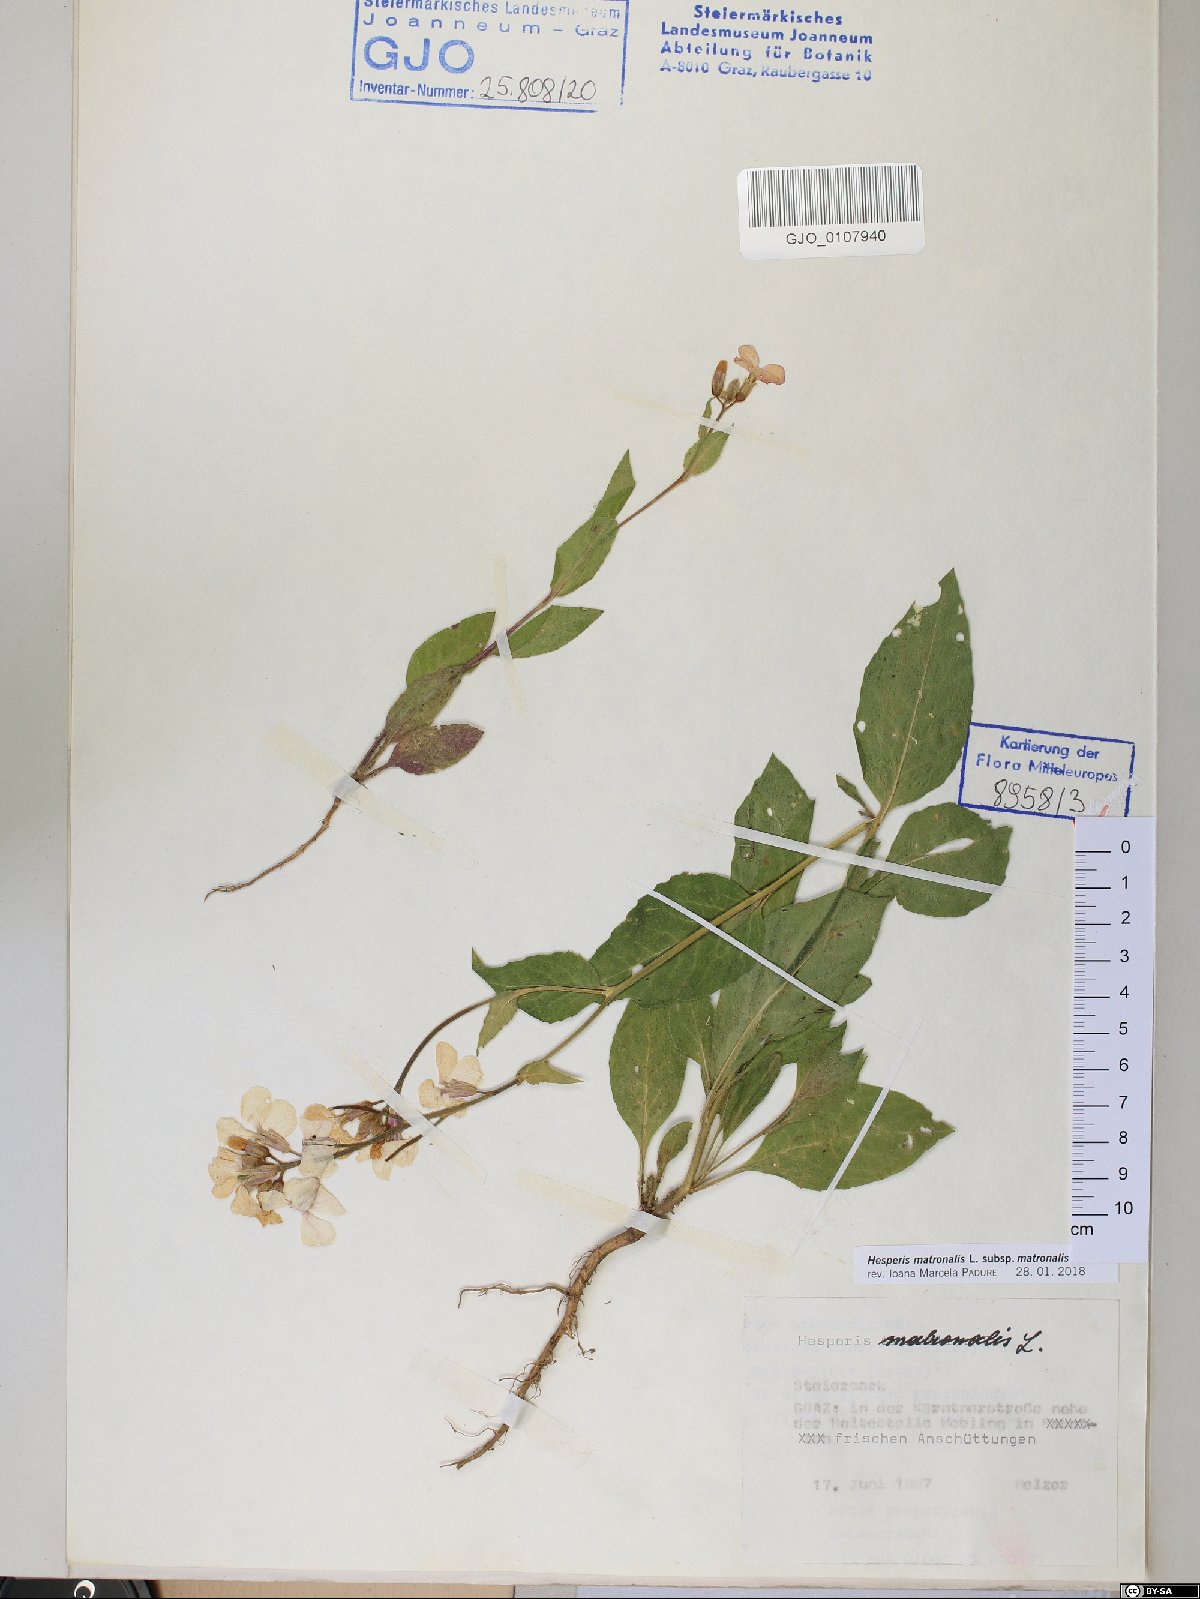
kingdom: Plantae
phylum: Tracheophyta
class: Magnoliopsida
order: Brassicales
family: Brassicaceae
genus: Hesperis
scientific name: Hesperis matronalis
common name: Dame's-violet
